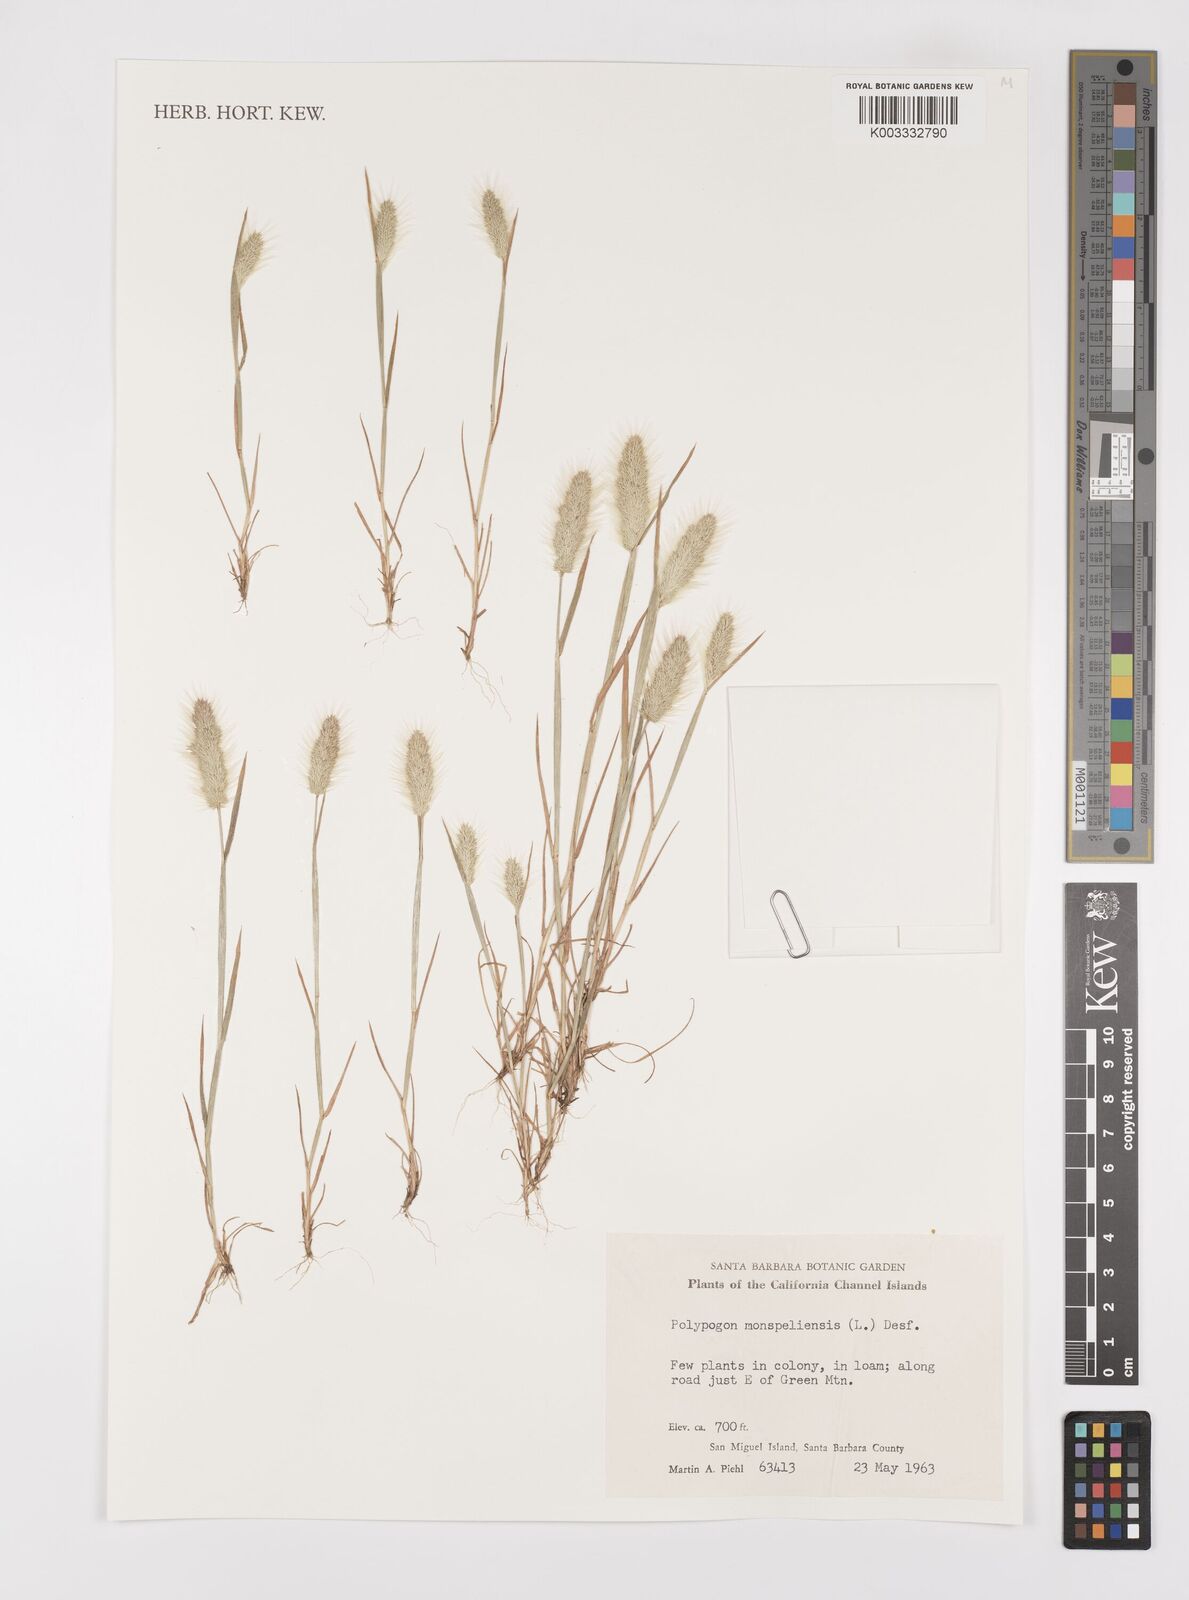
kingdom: Plantae
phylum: Tracheophyta
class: Liliopsida
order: Poales
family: Poaceae
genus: Polypogon
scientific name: Polypogon monspeliensis
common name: Annual rabbitsfoot grass
